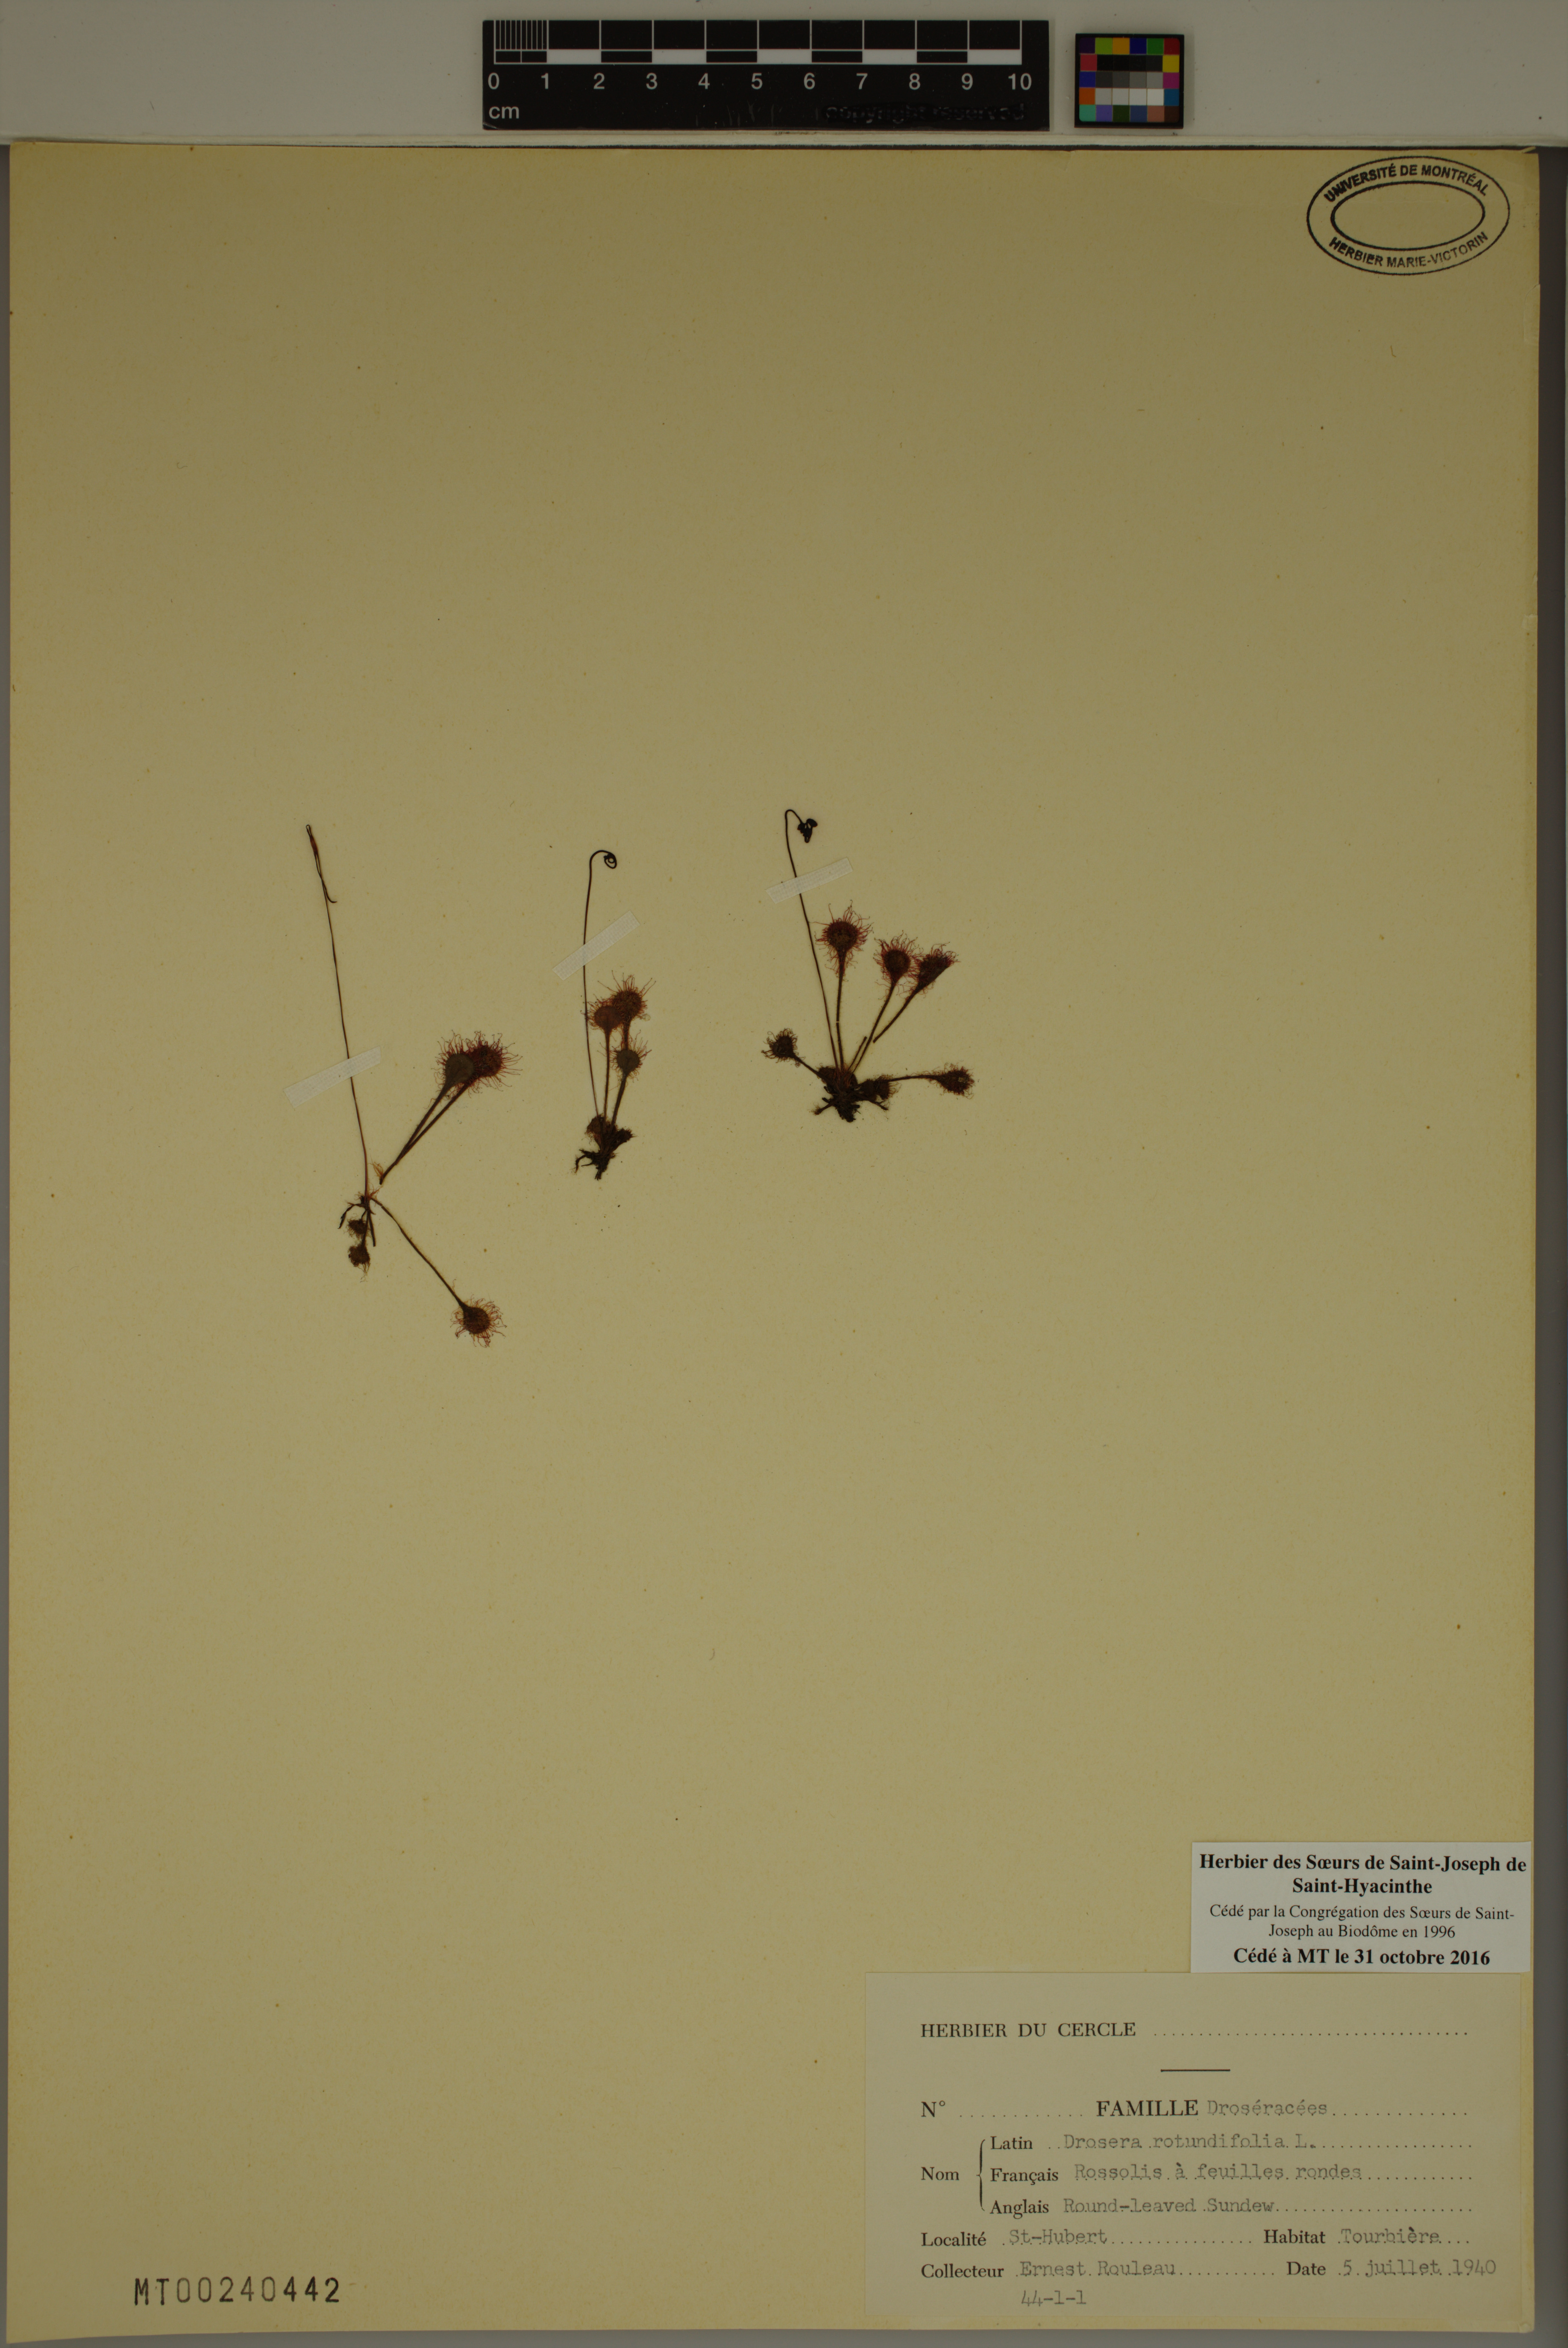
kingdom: Plantae
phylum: Tracheophyta
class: Magnoliopsida
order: Caryophyllales
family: Droseraceae
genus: Drosera
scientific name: Drosera rotundifolia
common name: Round-leaved sundew
